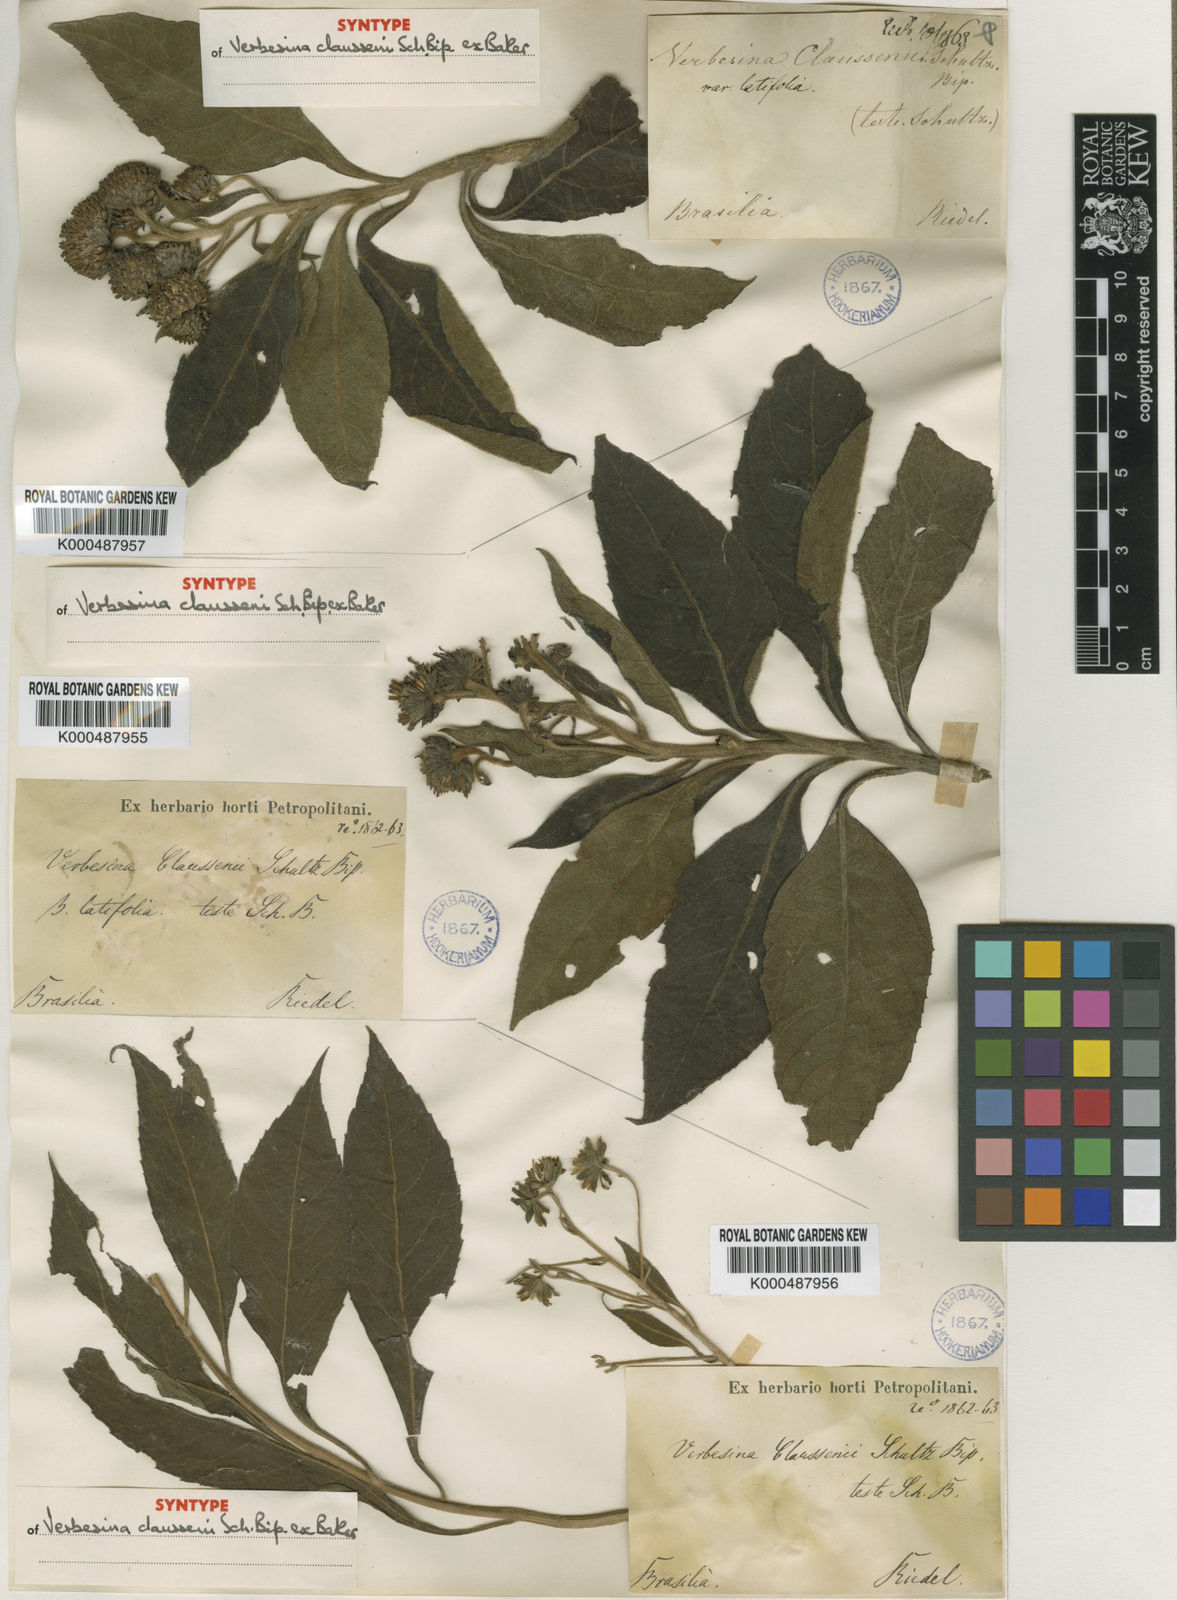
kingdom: Plantae
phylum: Tracheophyta
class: Magnoliopsida
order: Asterales
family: Asteraceae
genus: Verbesina
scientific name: Verbesina claussenii
